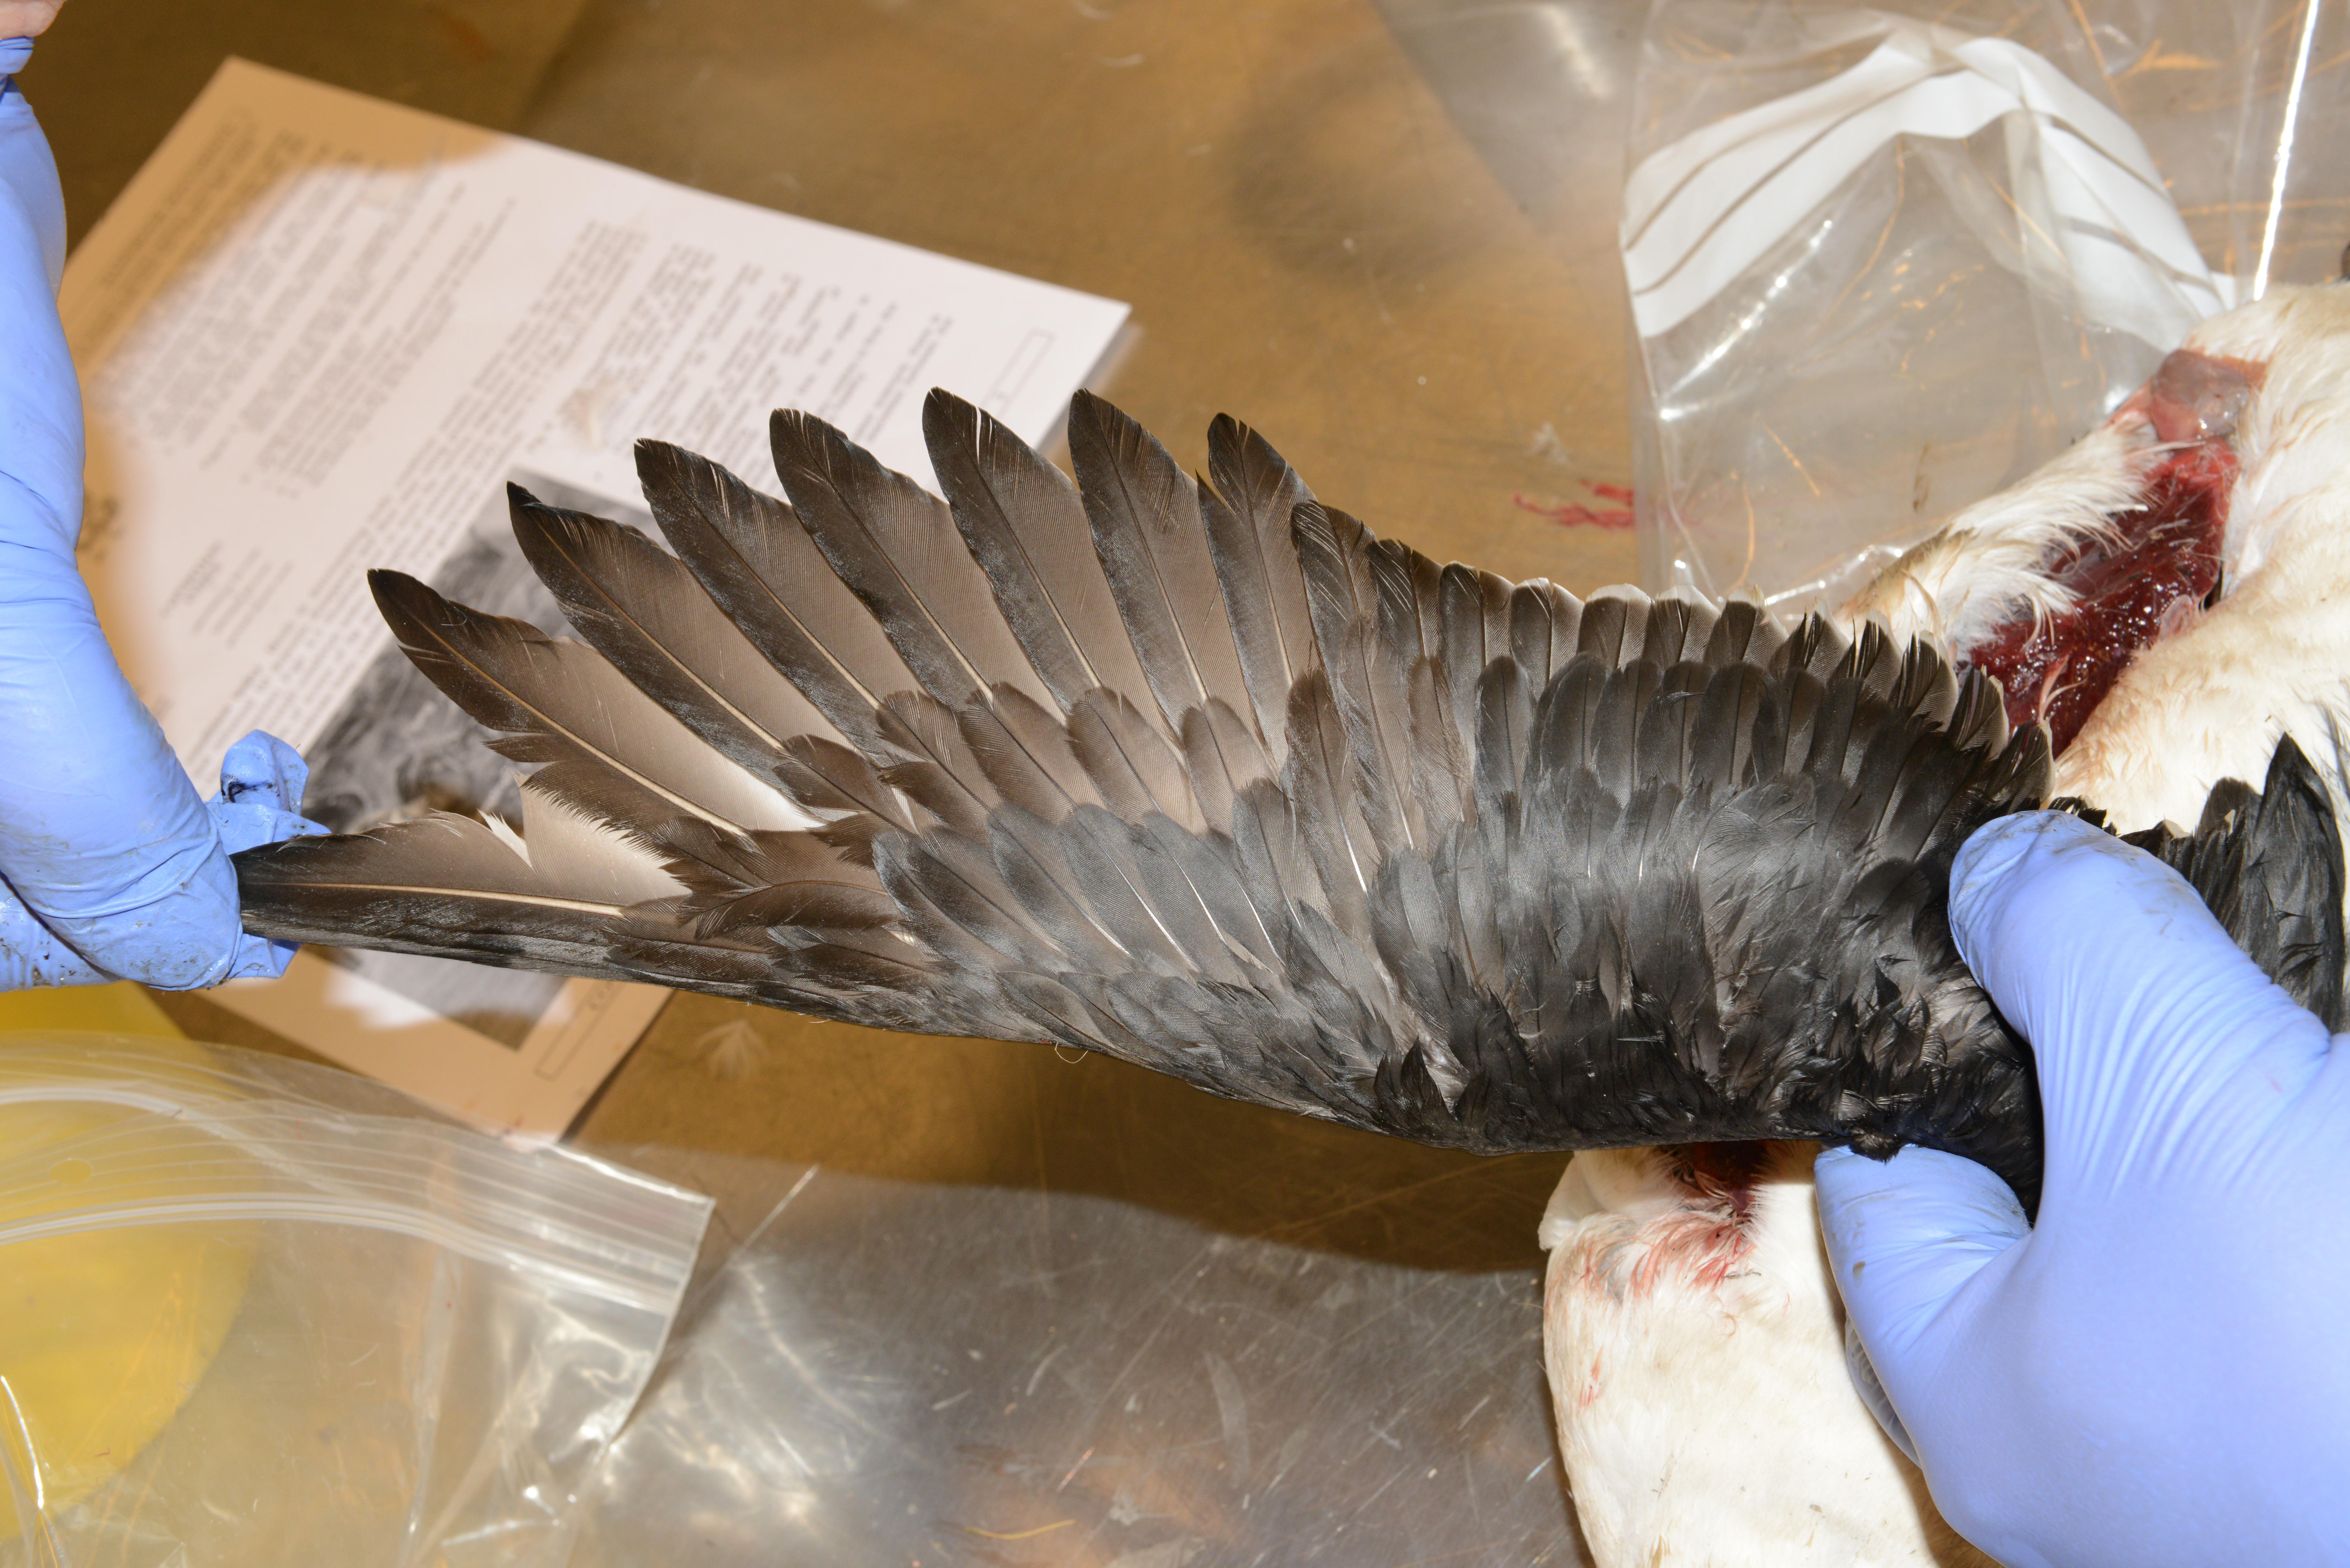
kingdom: Animalia
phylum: Chordata
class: Aves
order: Charadriiformes
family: Alcidae
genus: Uria
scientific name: Uria aalge
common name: Common murre
